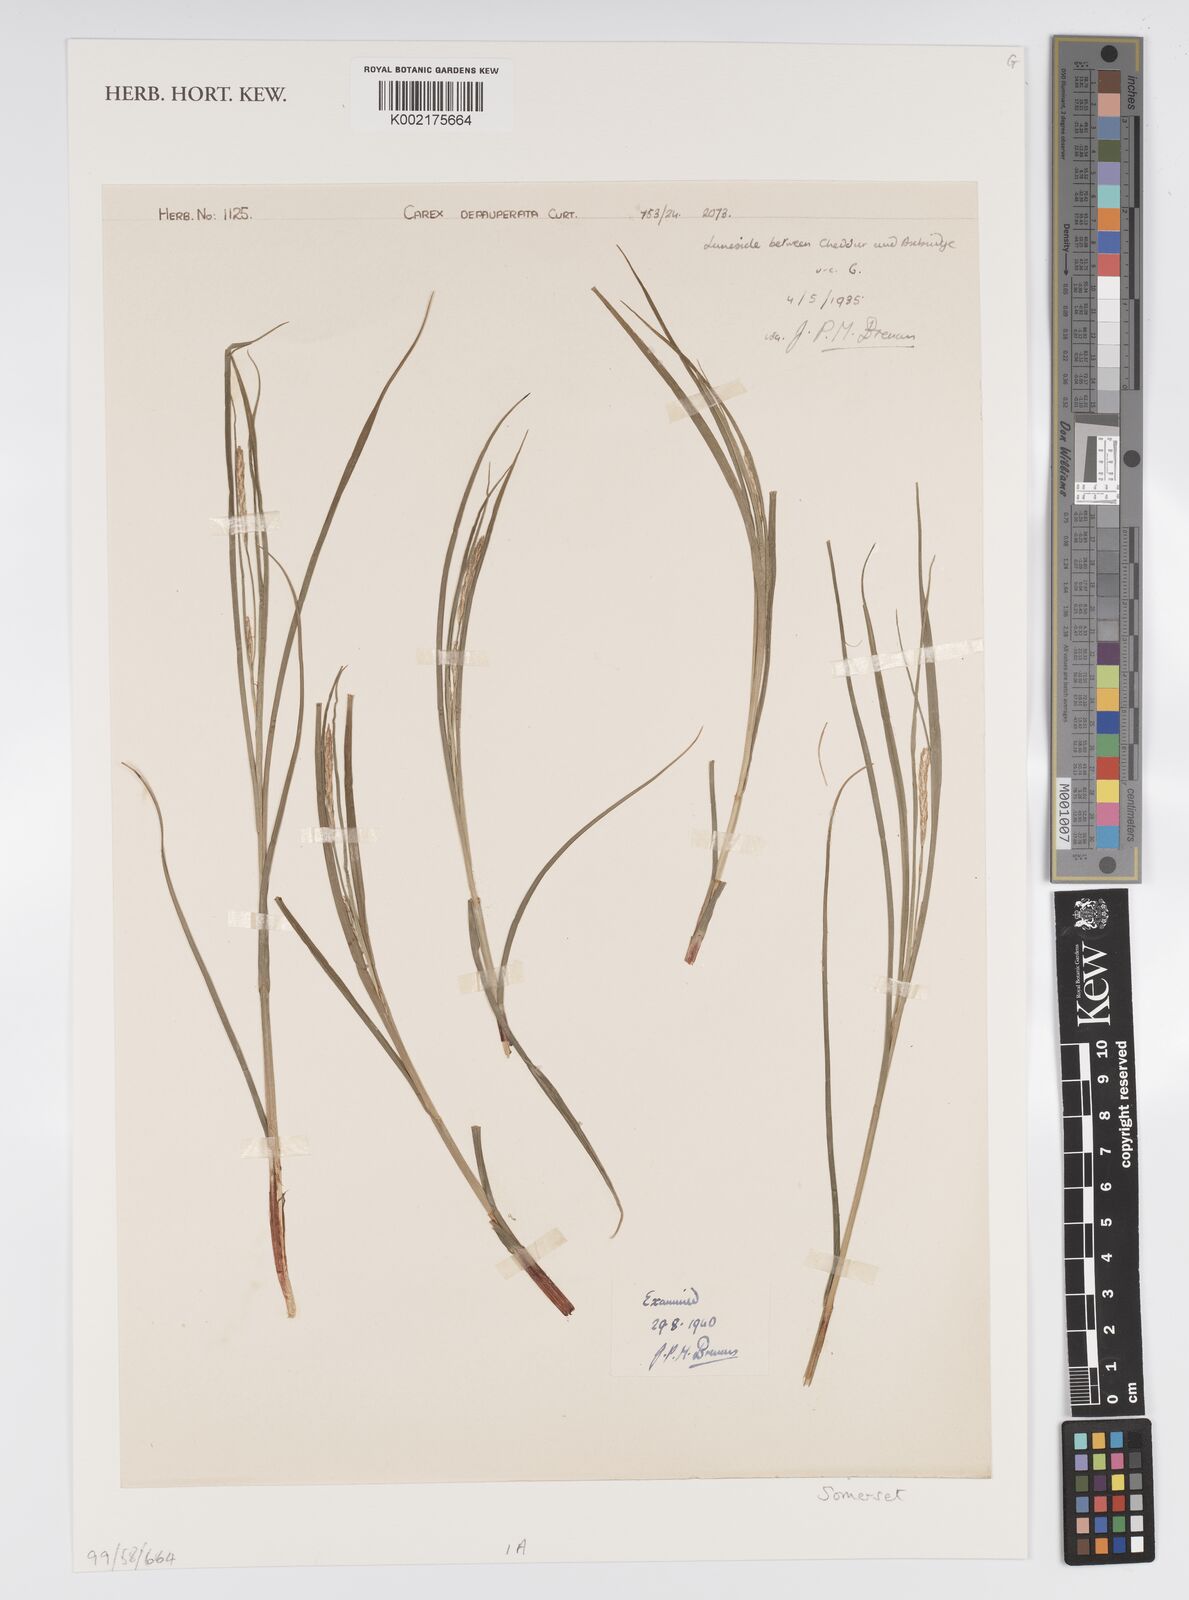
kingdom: Plantae
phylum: Tracheophyta
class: Liliopsida
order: Poales
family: Cyperaceae
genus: Carex
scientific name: Carex depauperata
